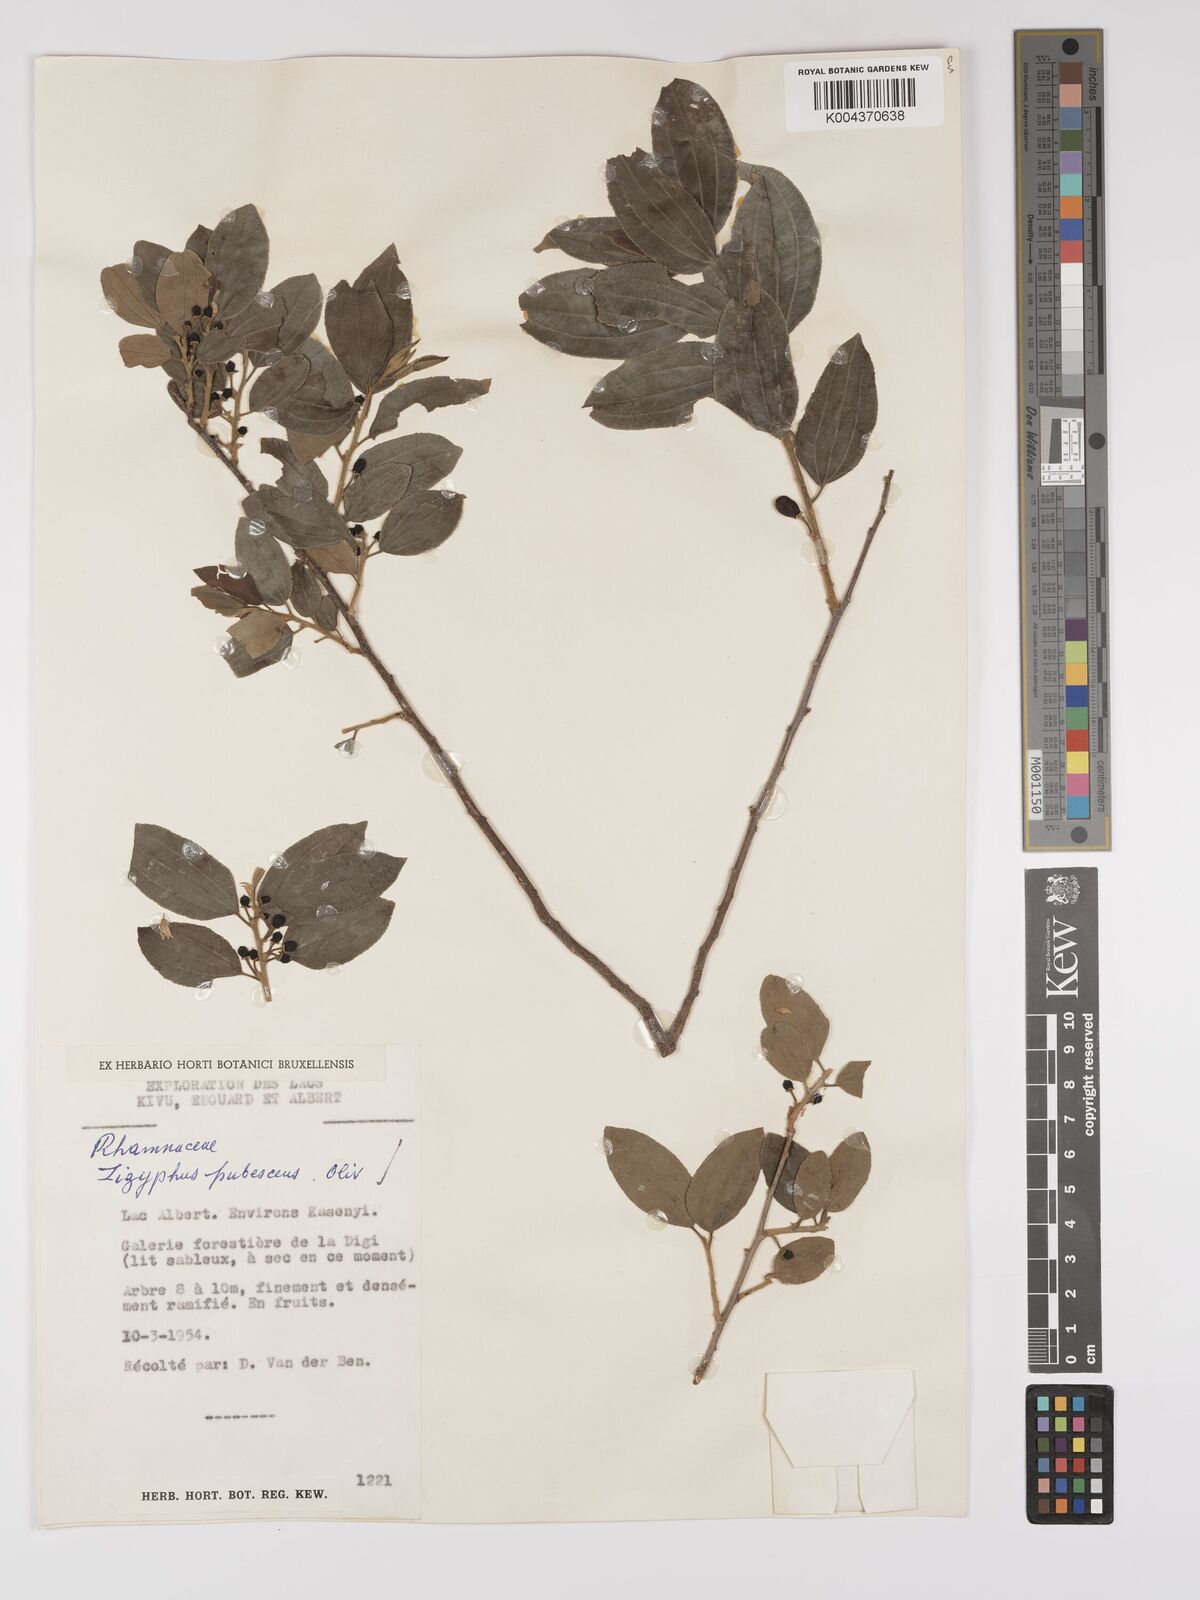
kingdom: Plantae
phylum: Tracheophyta
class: Magnoliopsida
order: Rosales
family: Rhamnaceae
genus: Ziziphus
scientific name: Ziziphus pubescens
